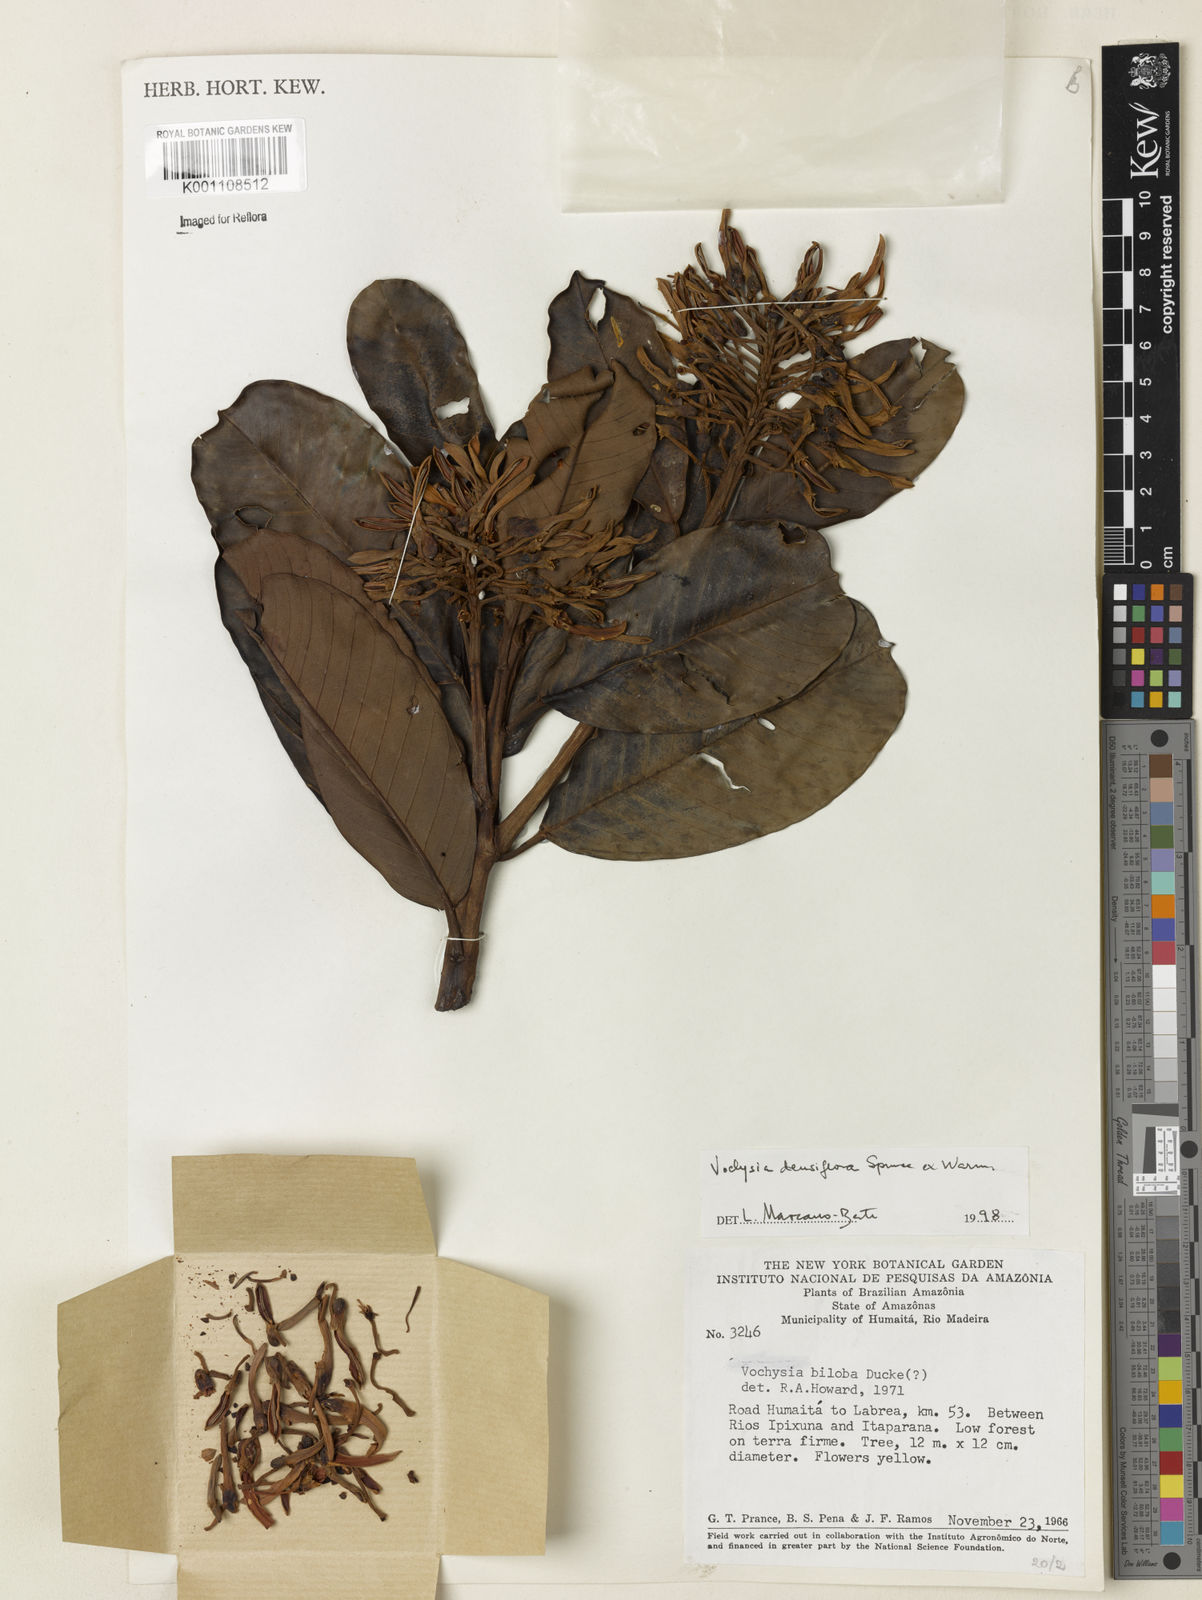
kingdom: Plantae
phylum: Tracheophyta
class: Magnoliopsida
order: Myrtales
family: Vochysiaceae
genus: Vochysia
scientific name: Vochysia
